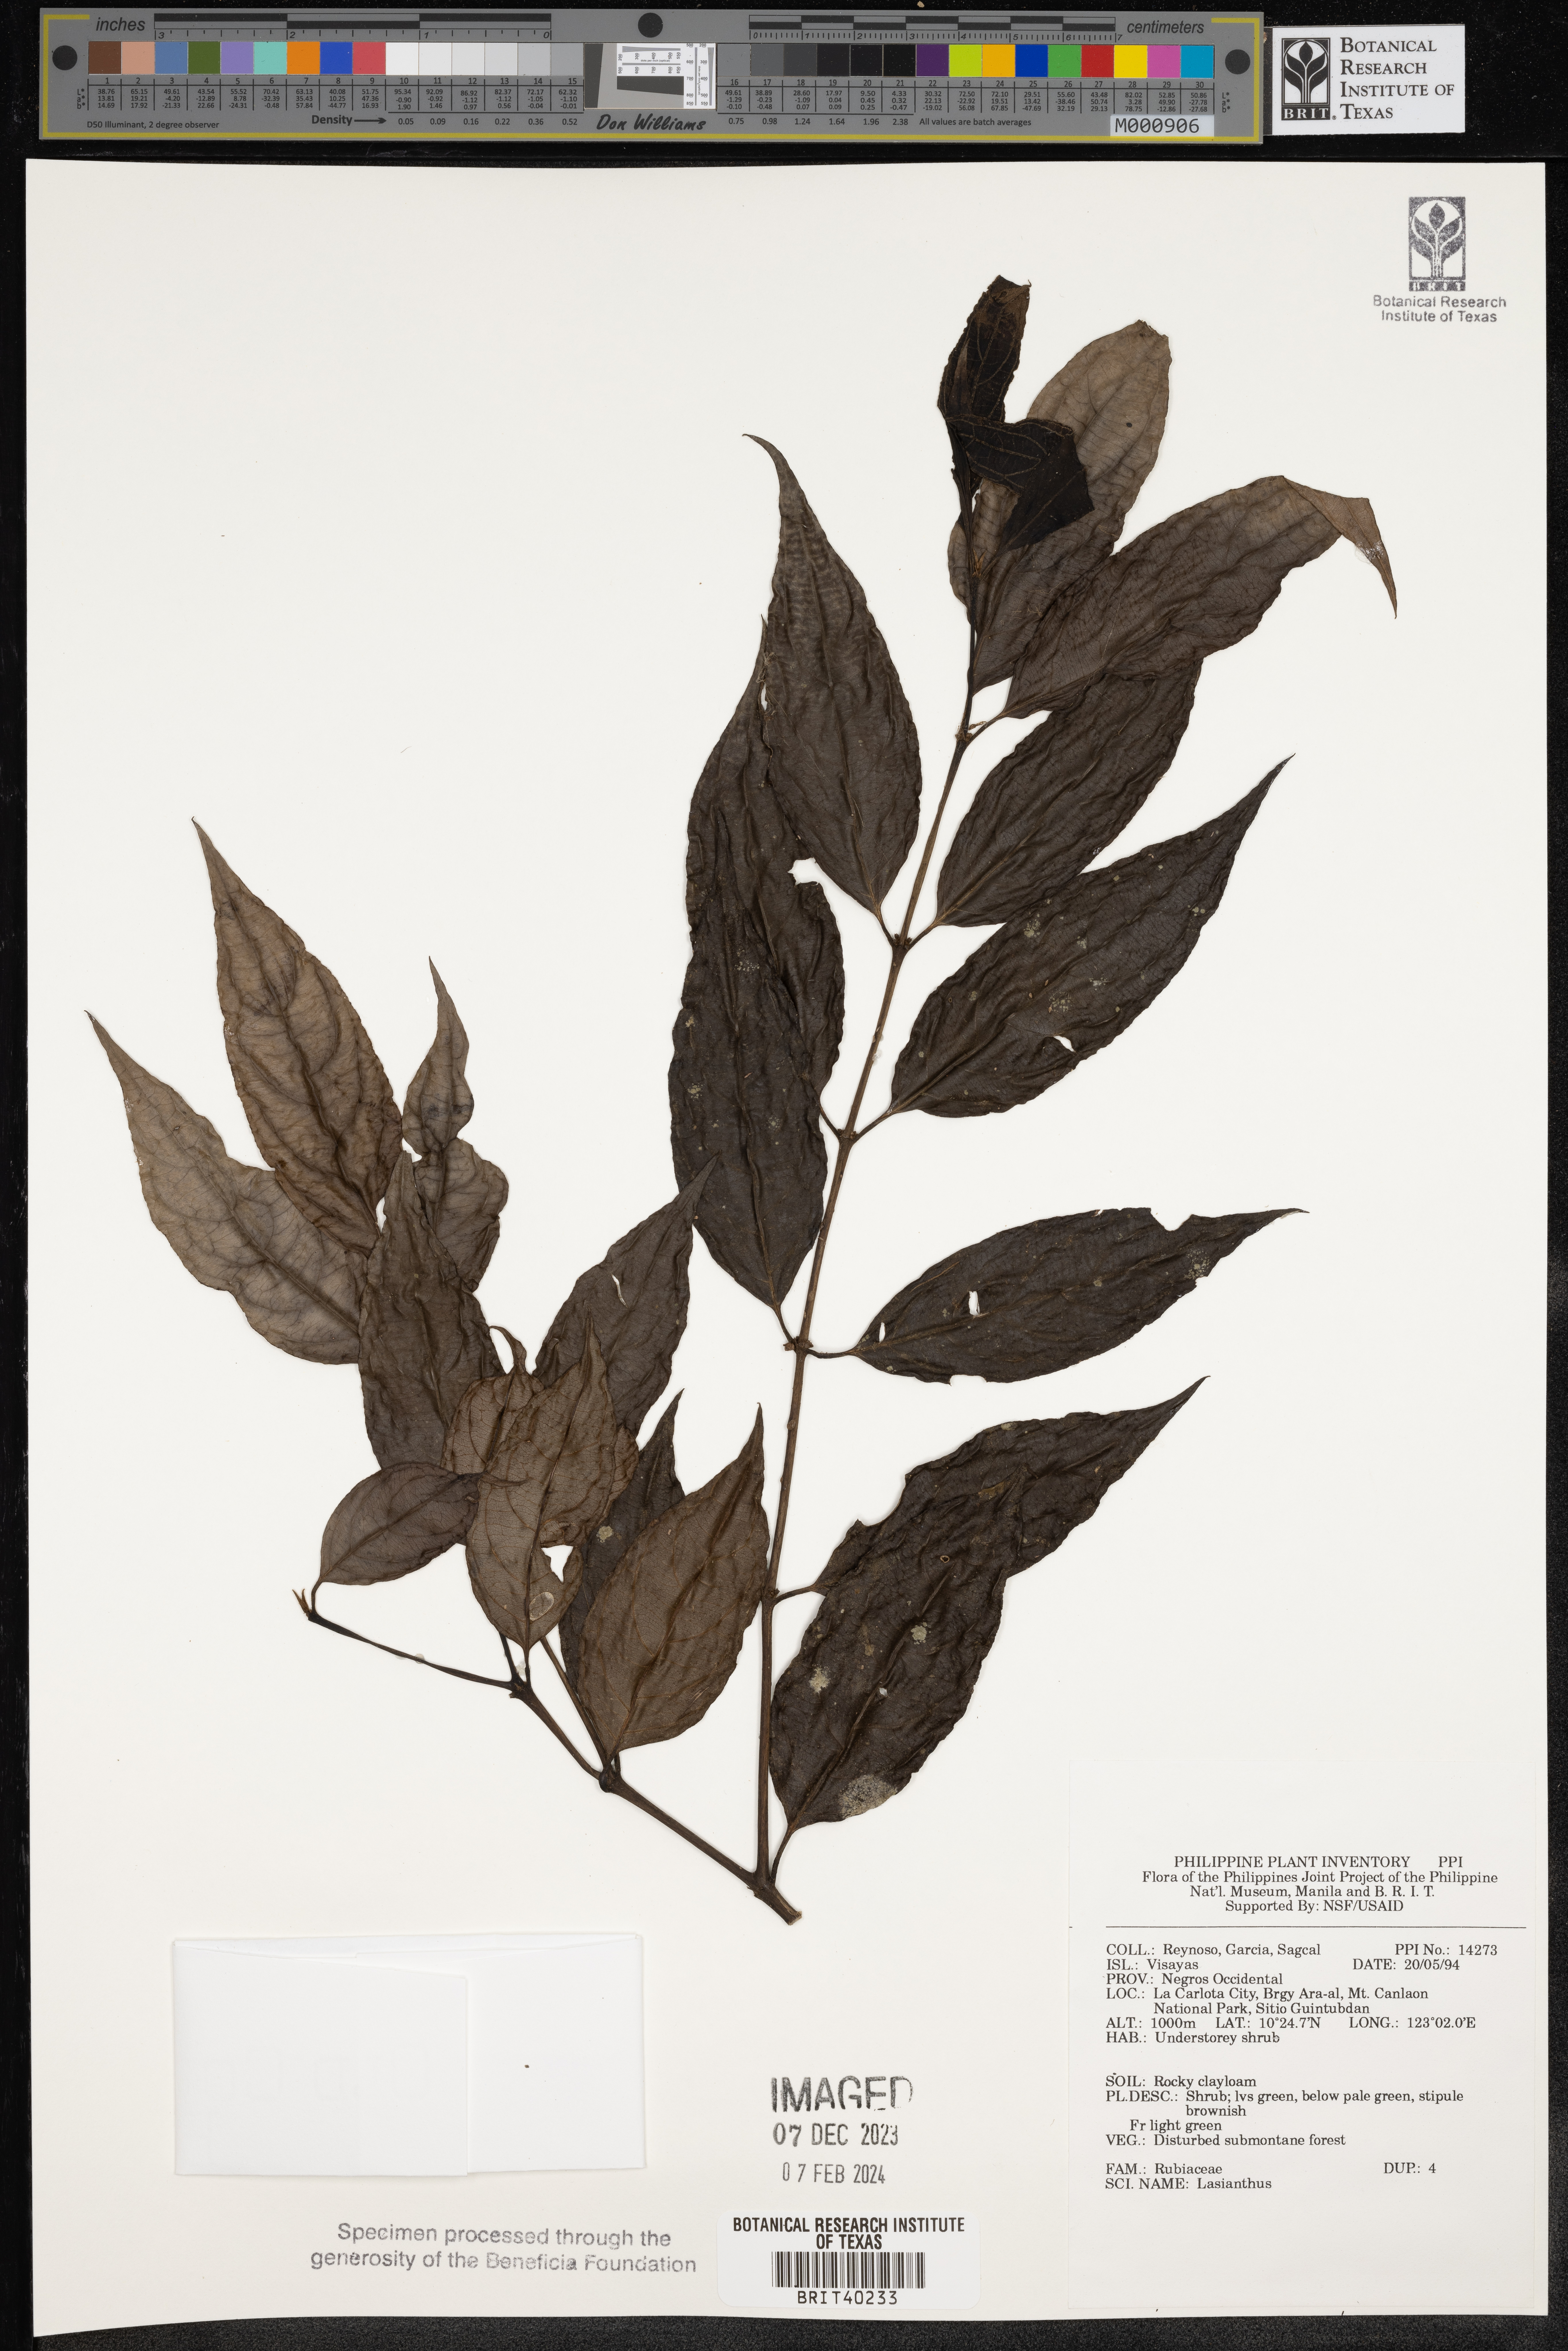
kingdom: Plantae
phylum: Tracheophyta
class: Magnoliopsida
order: Gentianales
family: Rubiaceae
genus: Lasianthus
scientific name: Lasianthus
